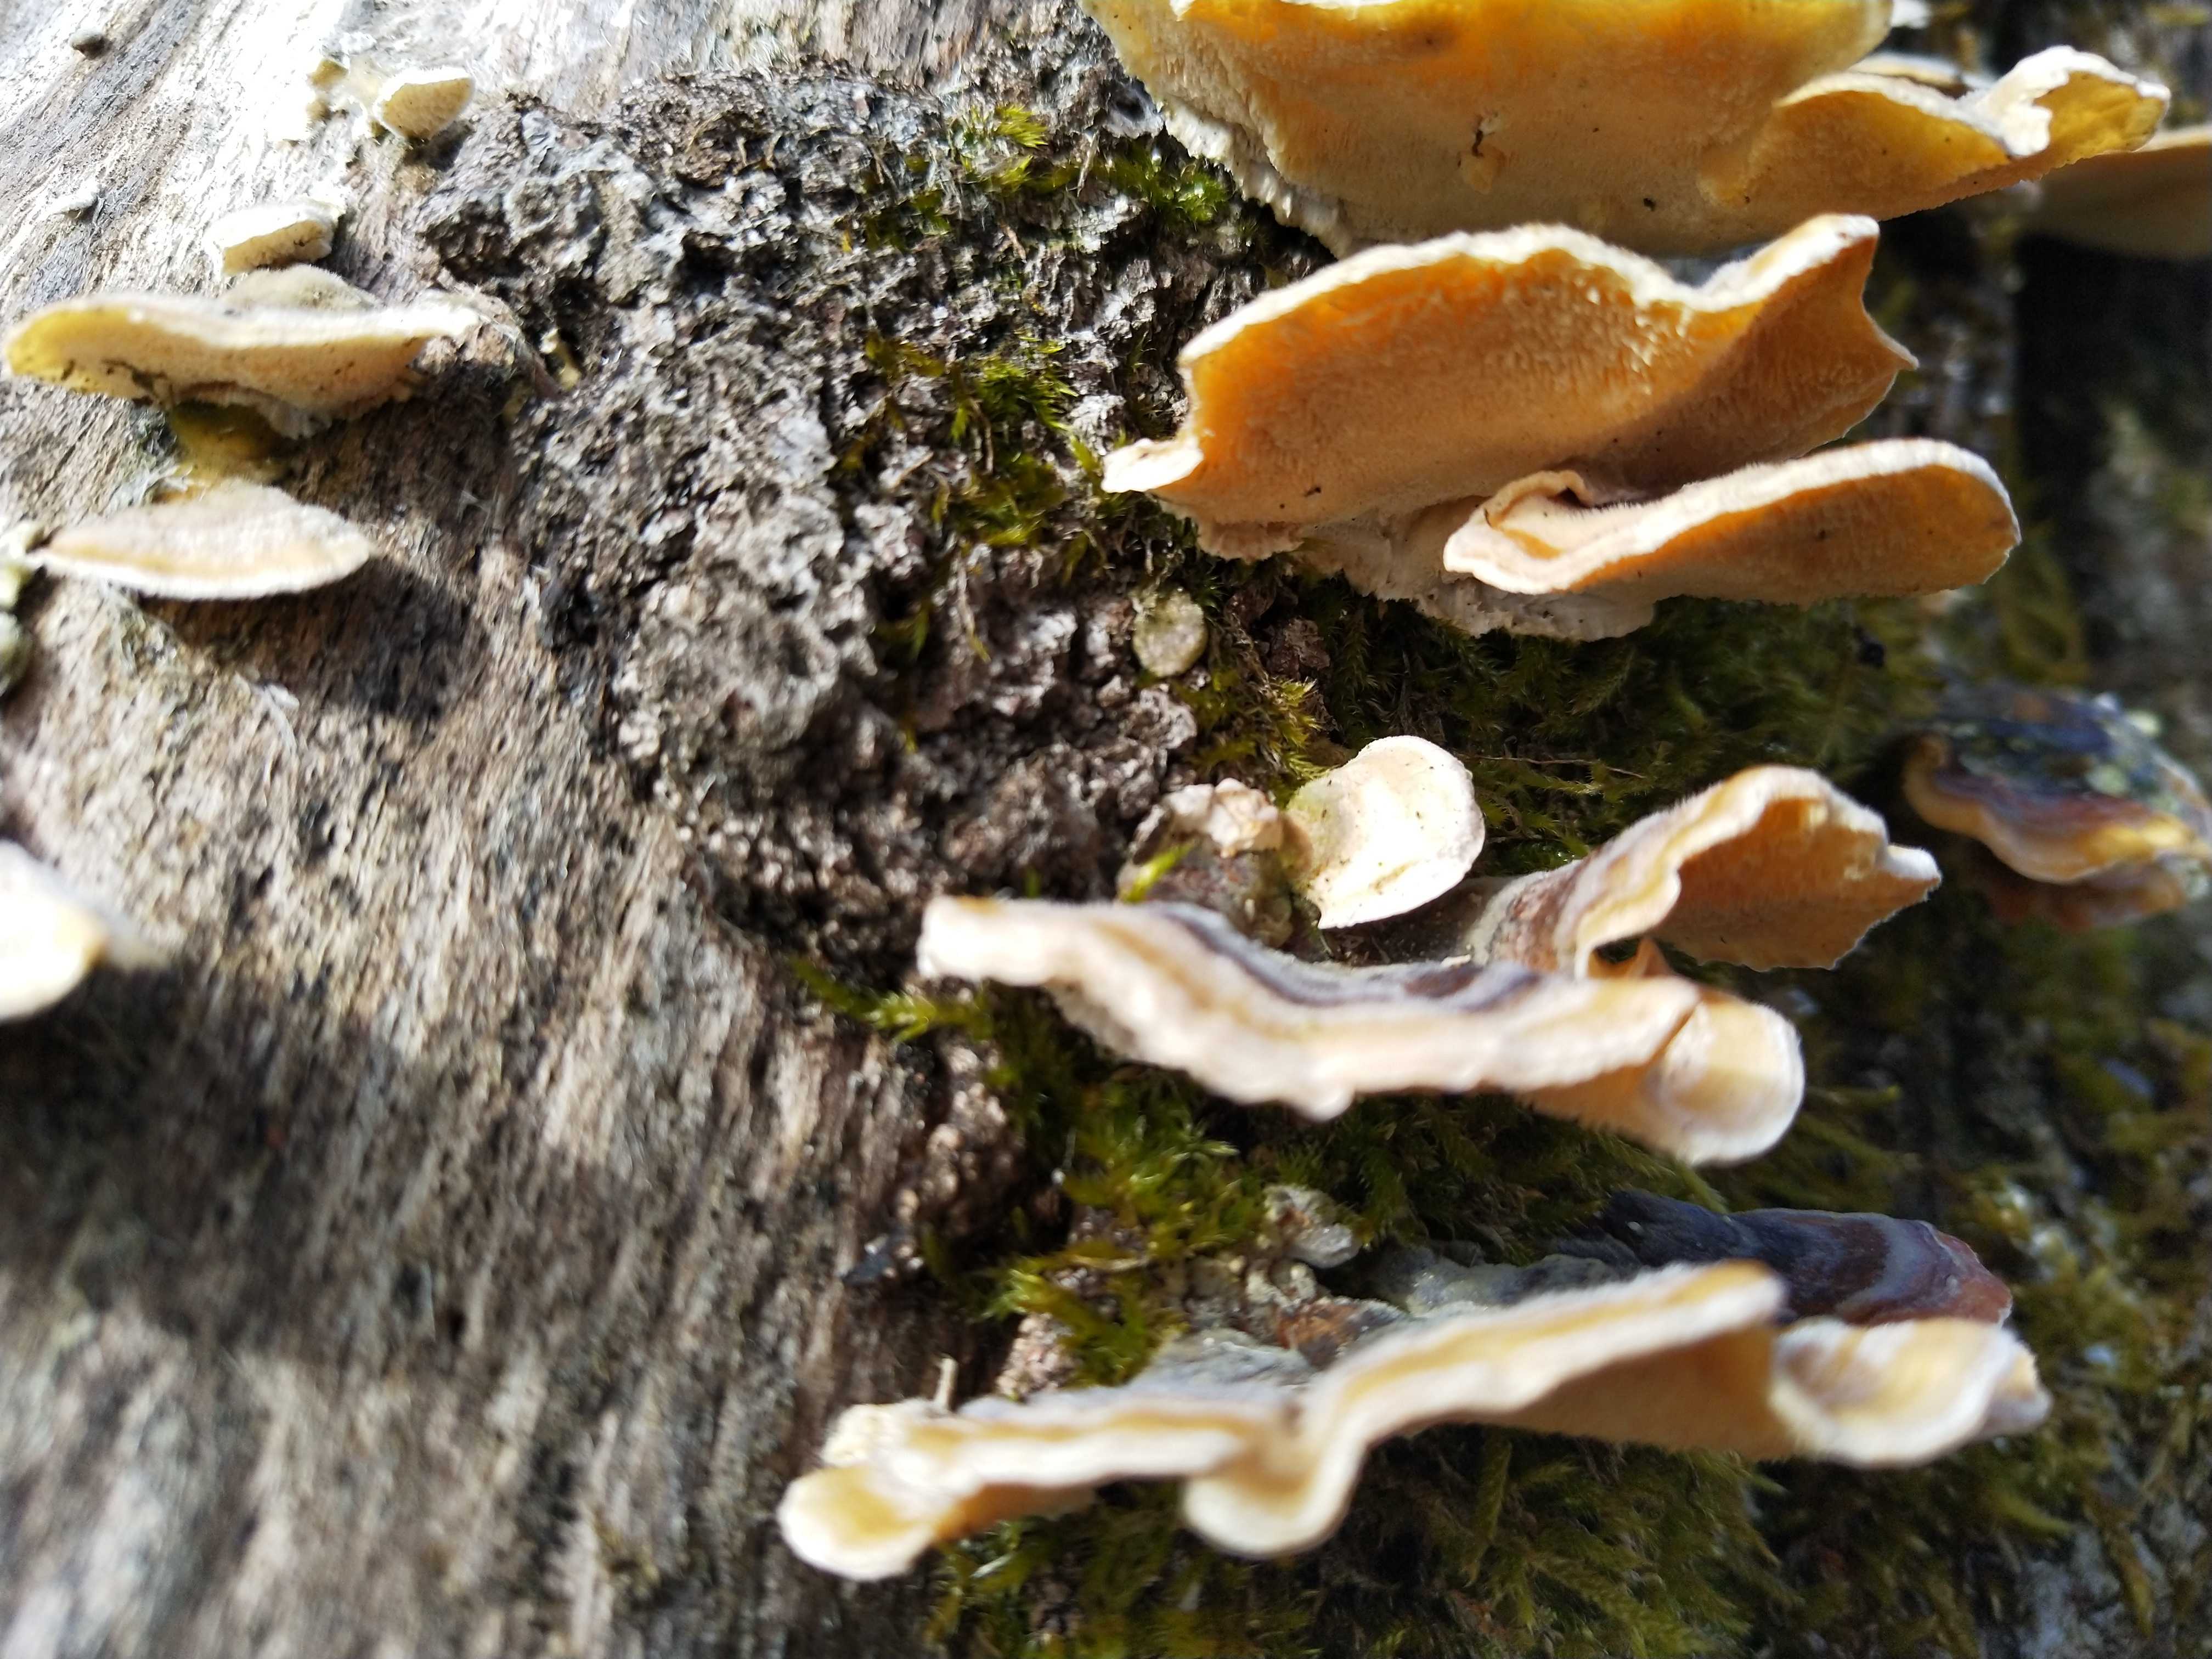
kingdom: Fungi
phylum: Basidiomycota
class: Agaricomycetes
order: Polyporales
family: Polyporaceae
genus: Trametes
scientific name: Trametes versicolor
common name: broget læderporesvamp
